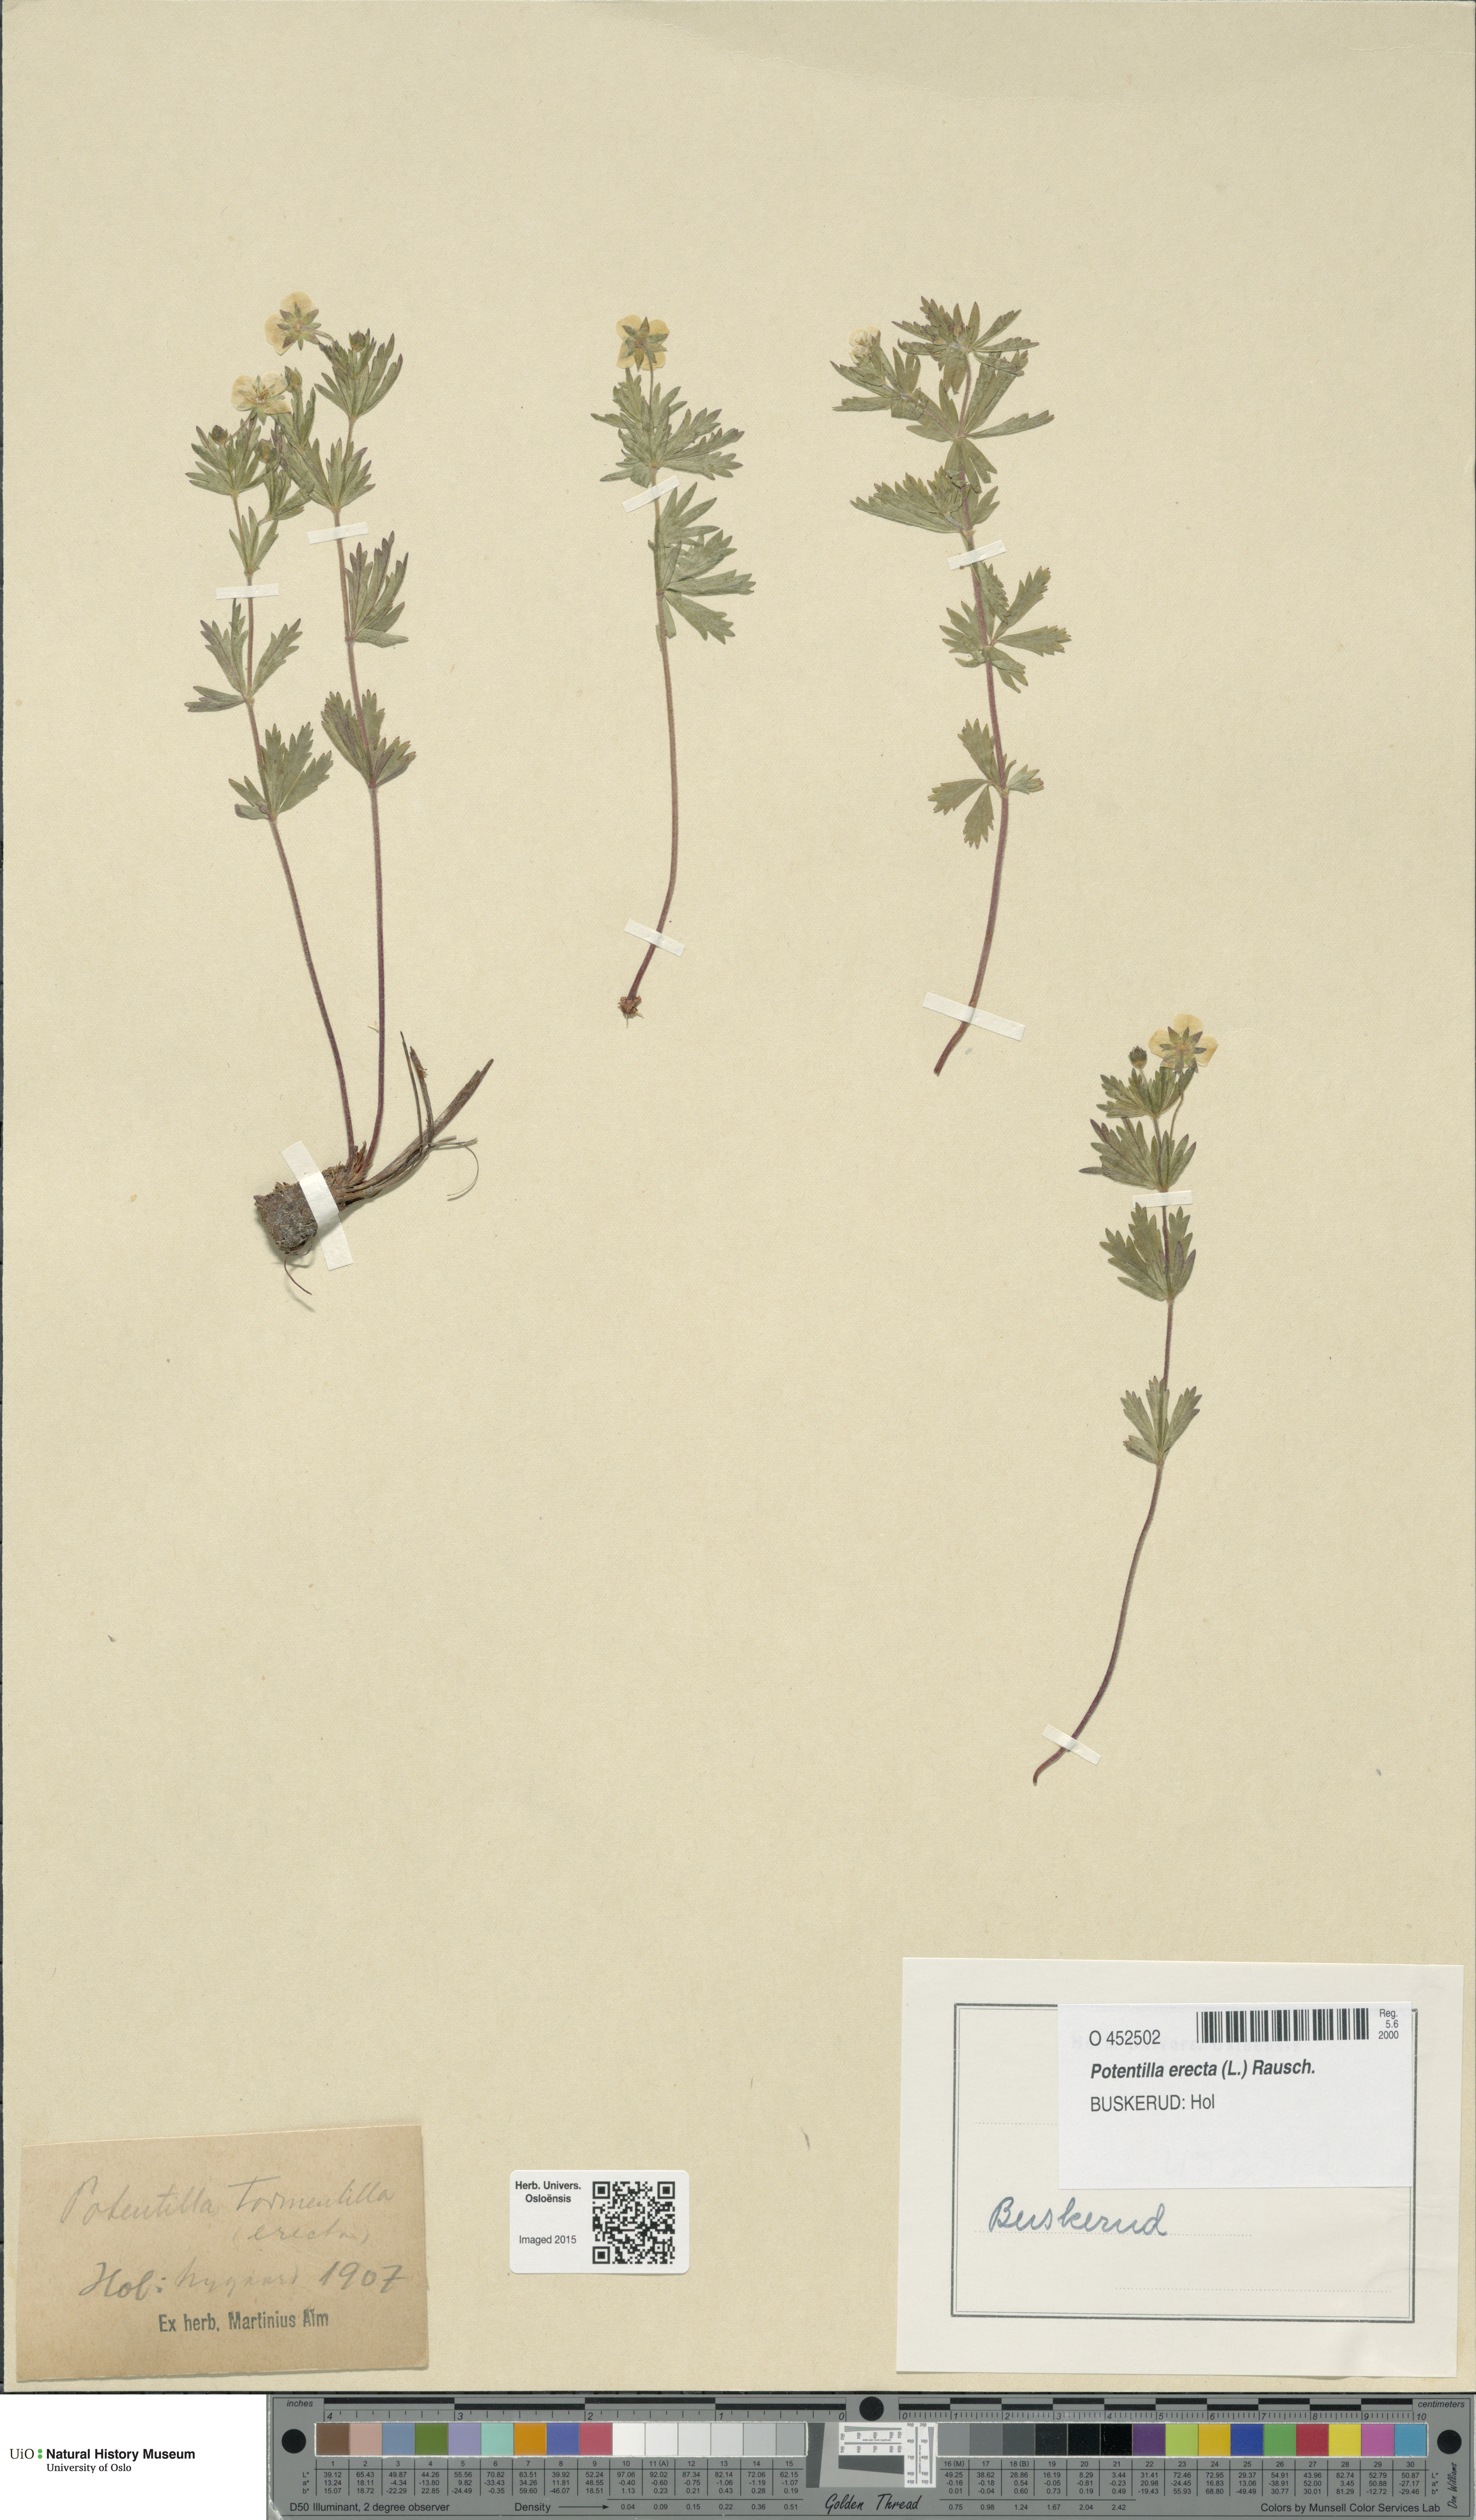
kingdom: Plantae
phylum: Tracheophyta
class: Magnoliopsida
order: Rosales
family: Rosaceae
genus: Potentilla
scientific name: Potentilla erecta
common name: Tormentil
